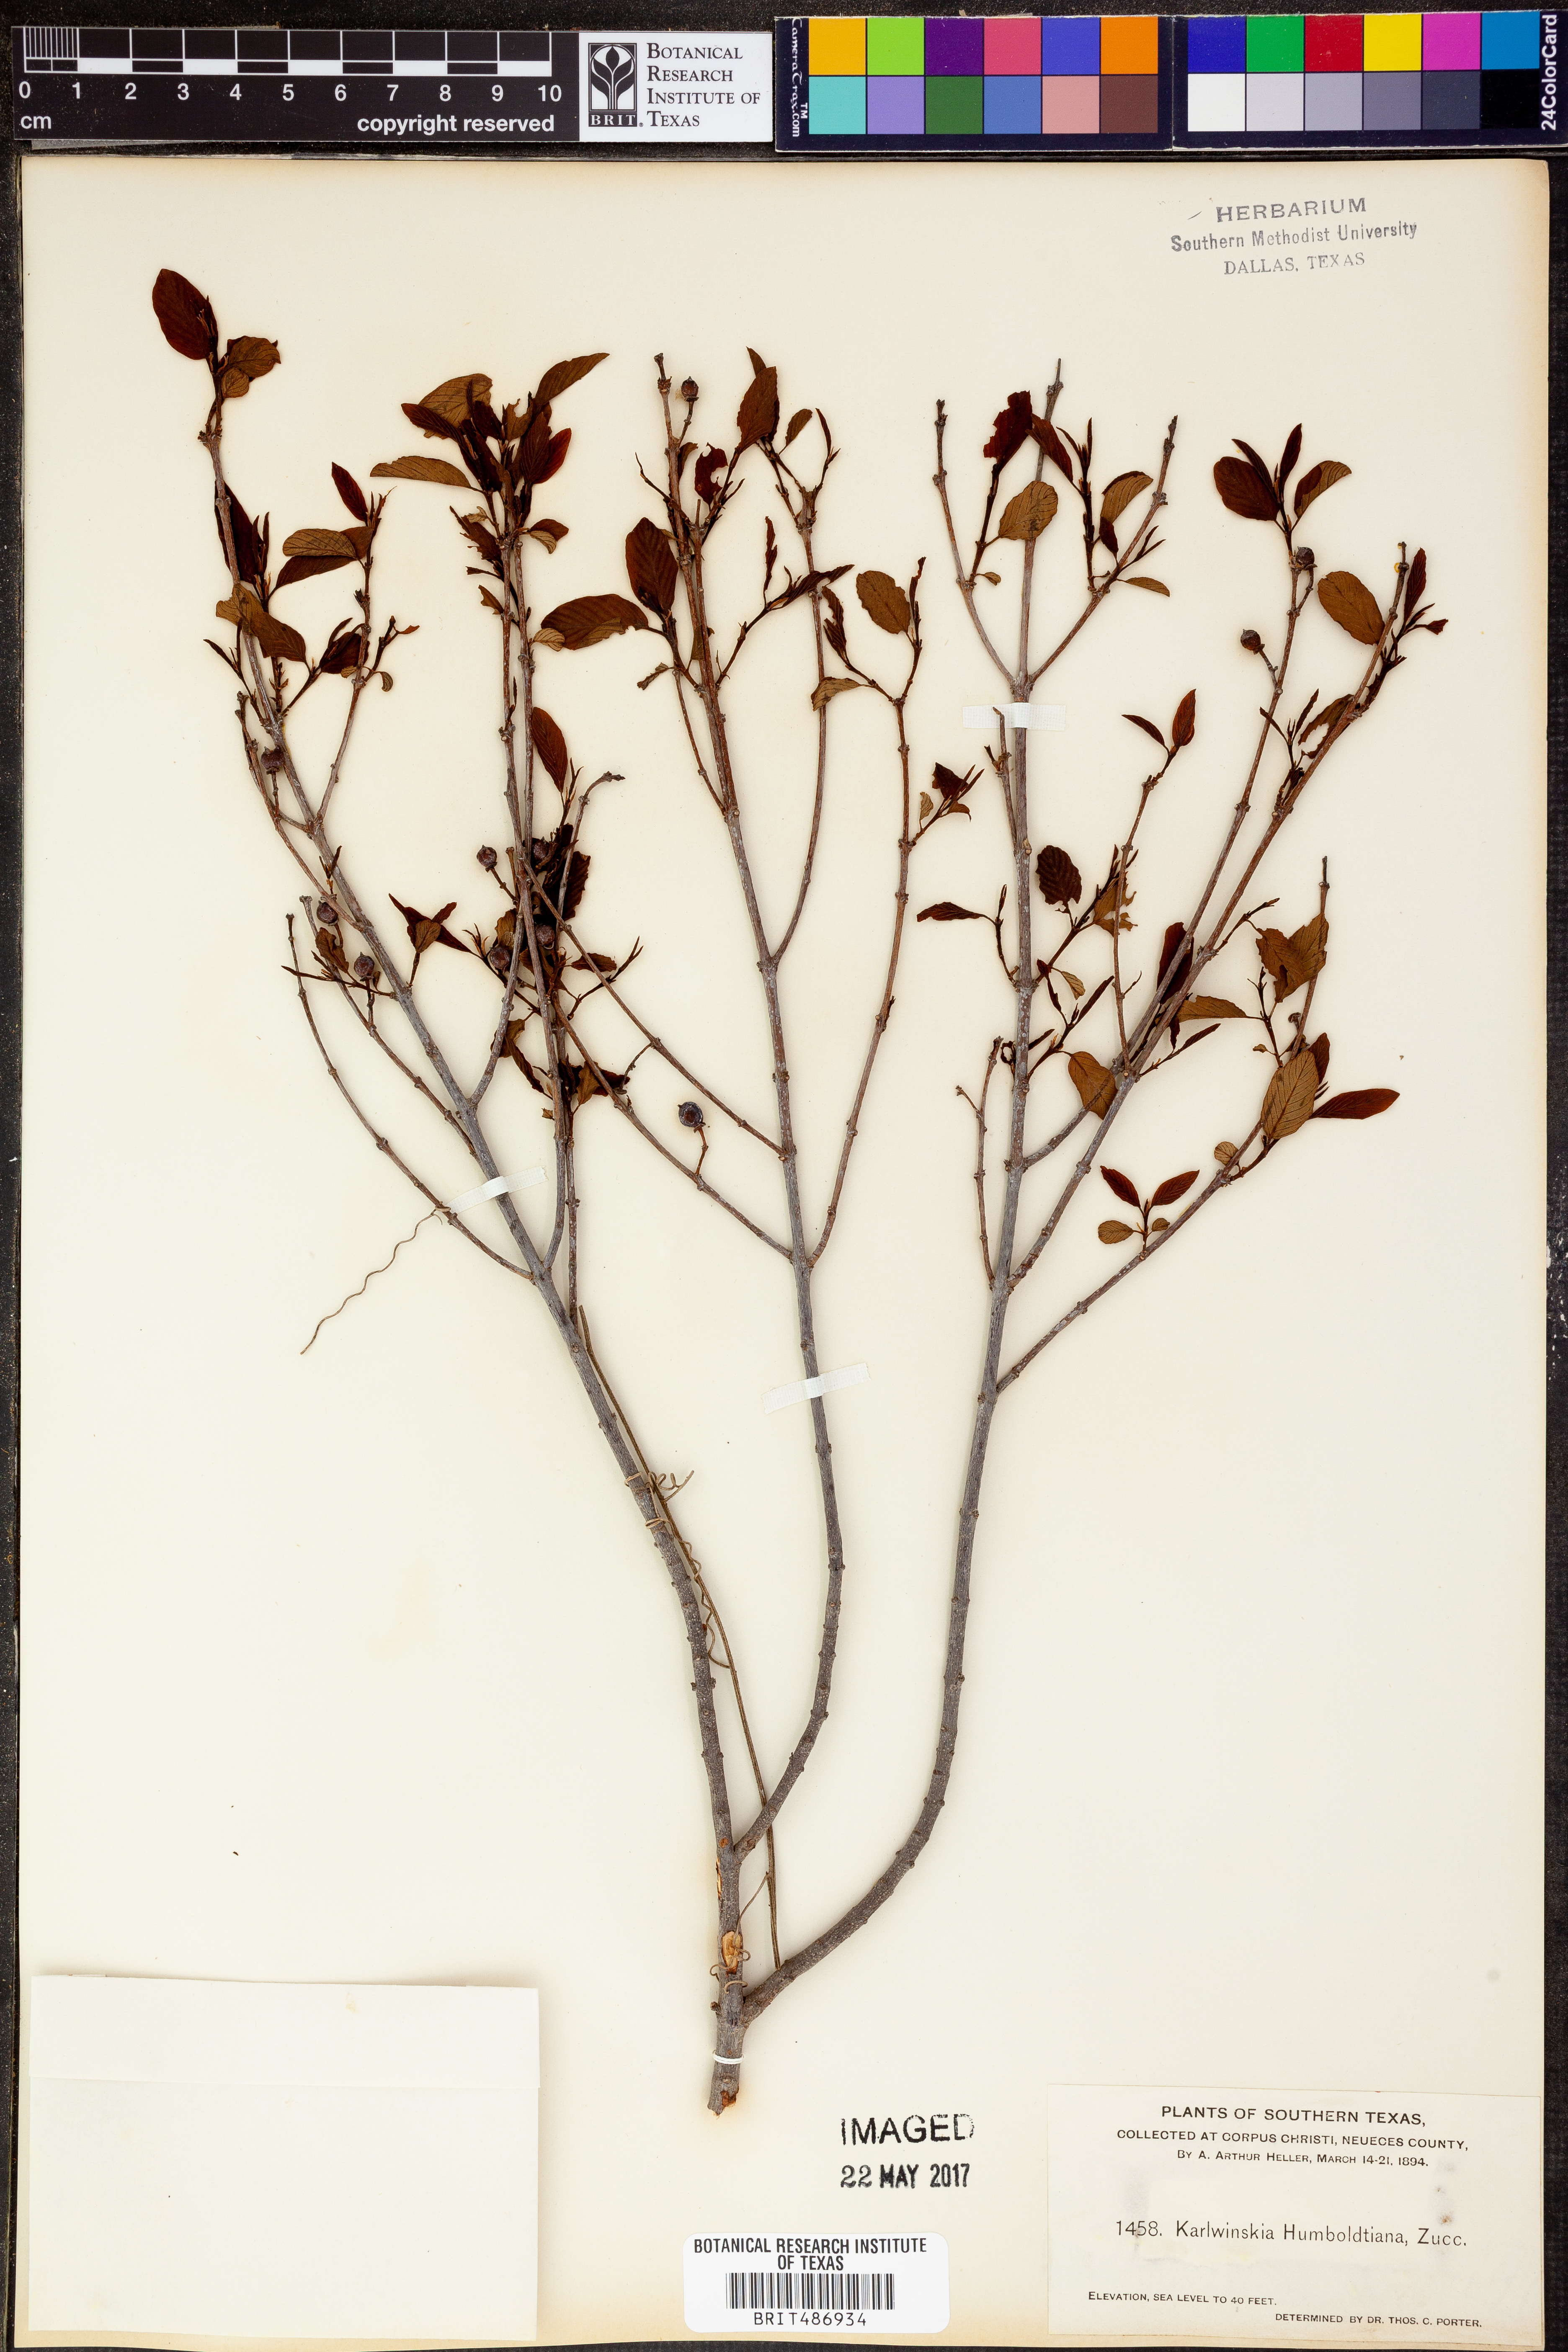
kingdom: Plantae
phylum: Tracheophyta
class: Magnoliopsida
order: Rosales
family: Rhamnaceae
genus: Karwinskia
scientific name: Karwinskia humboldtiana
